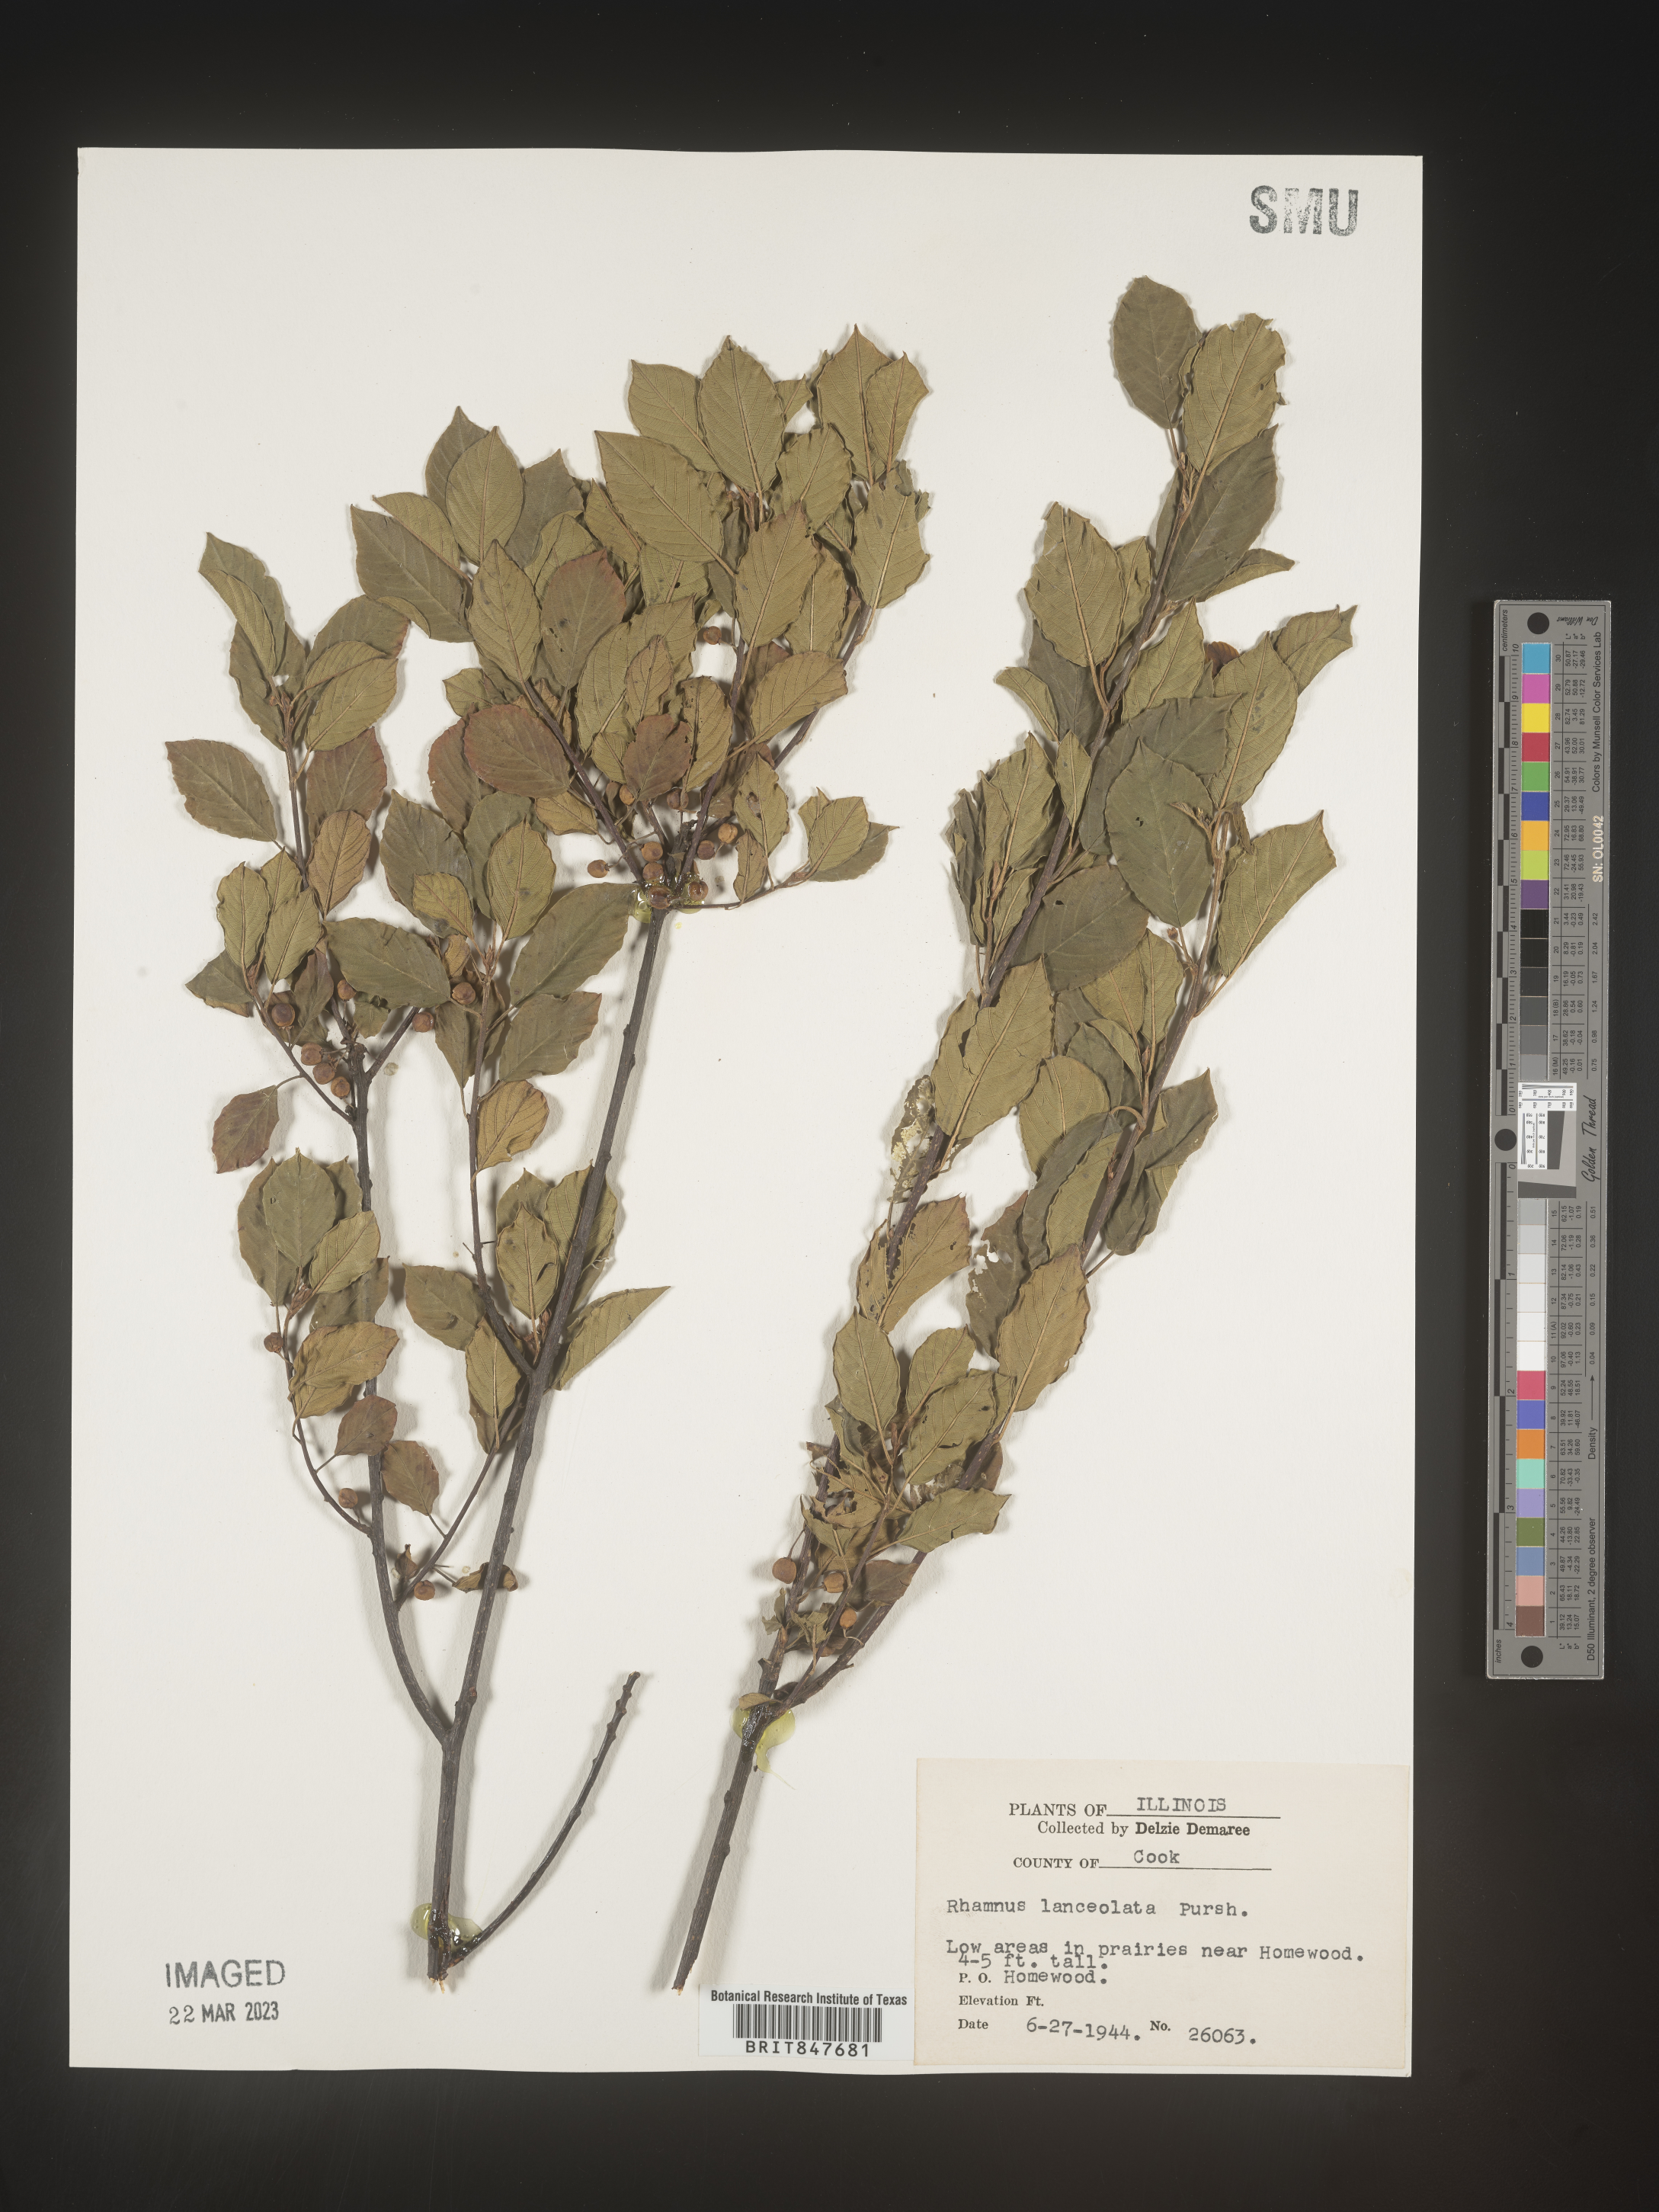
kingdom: Plantae
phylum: Tracheophyta
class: Magnoliopsida
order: Rosales
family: Rhamnaceae
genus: Endotropis
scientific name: Endotropis lanceolata
